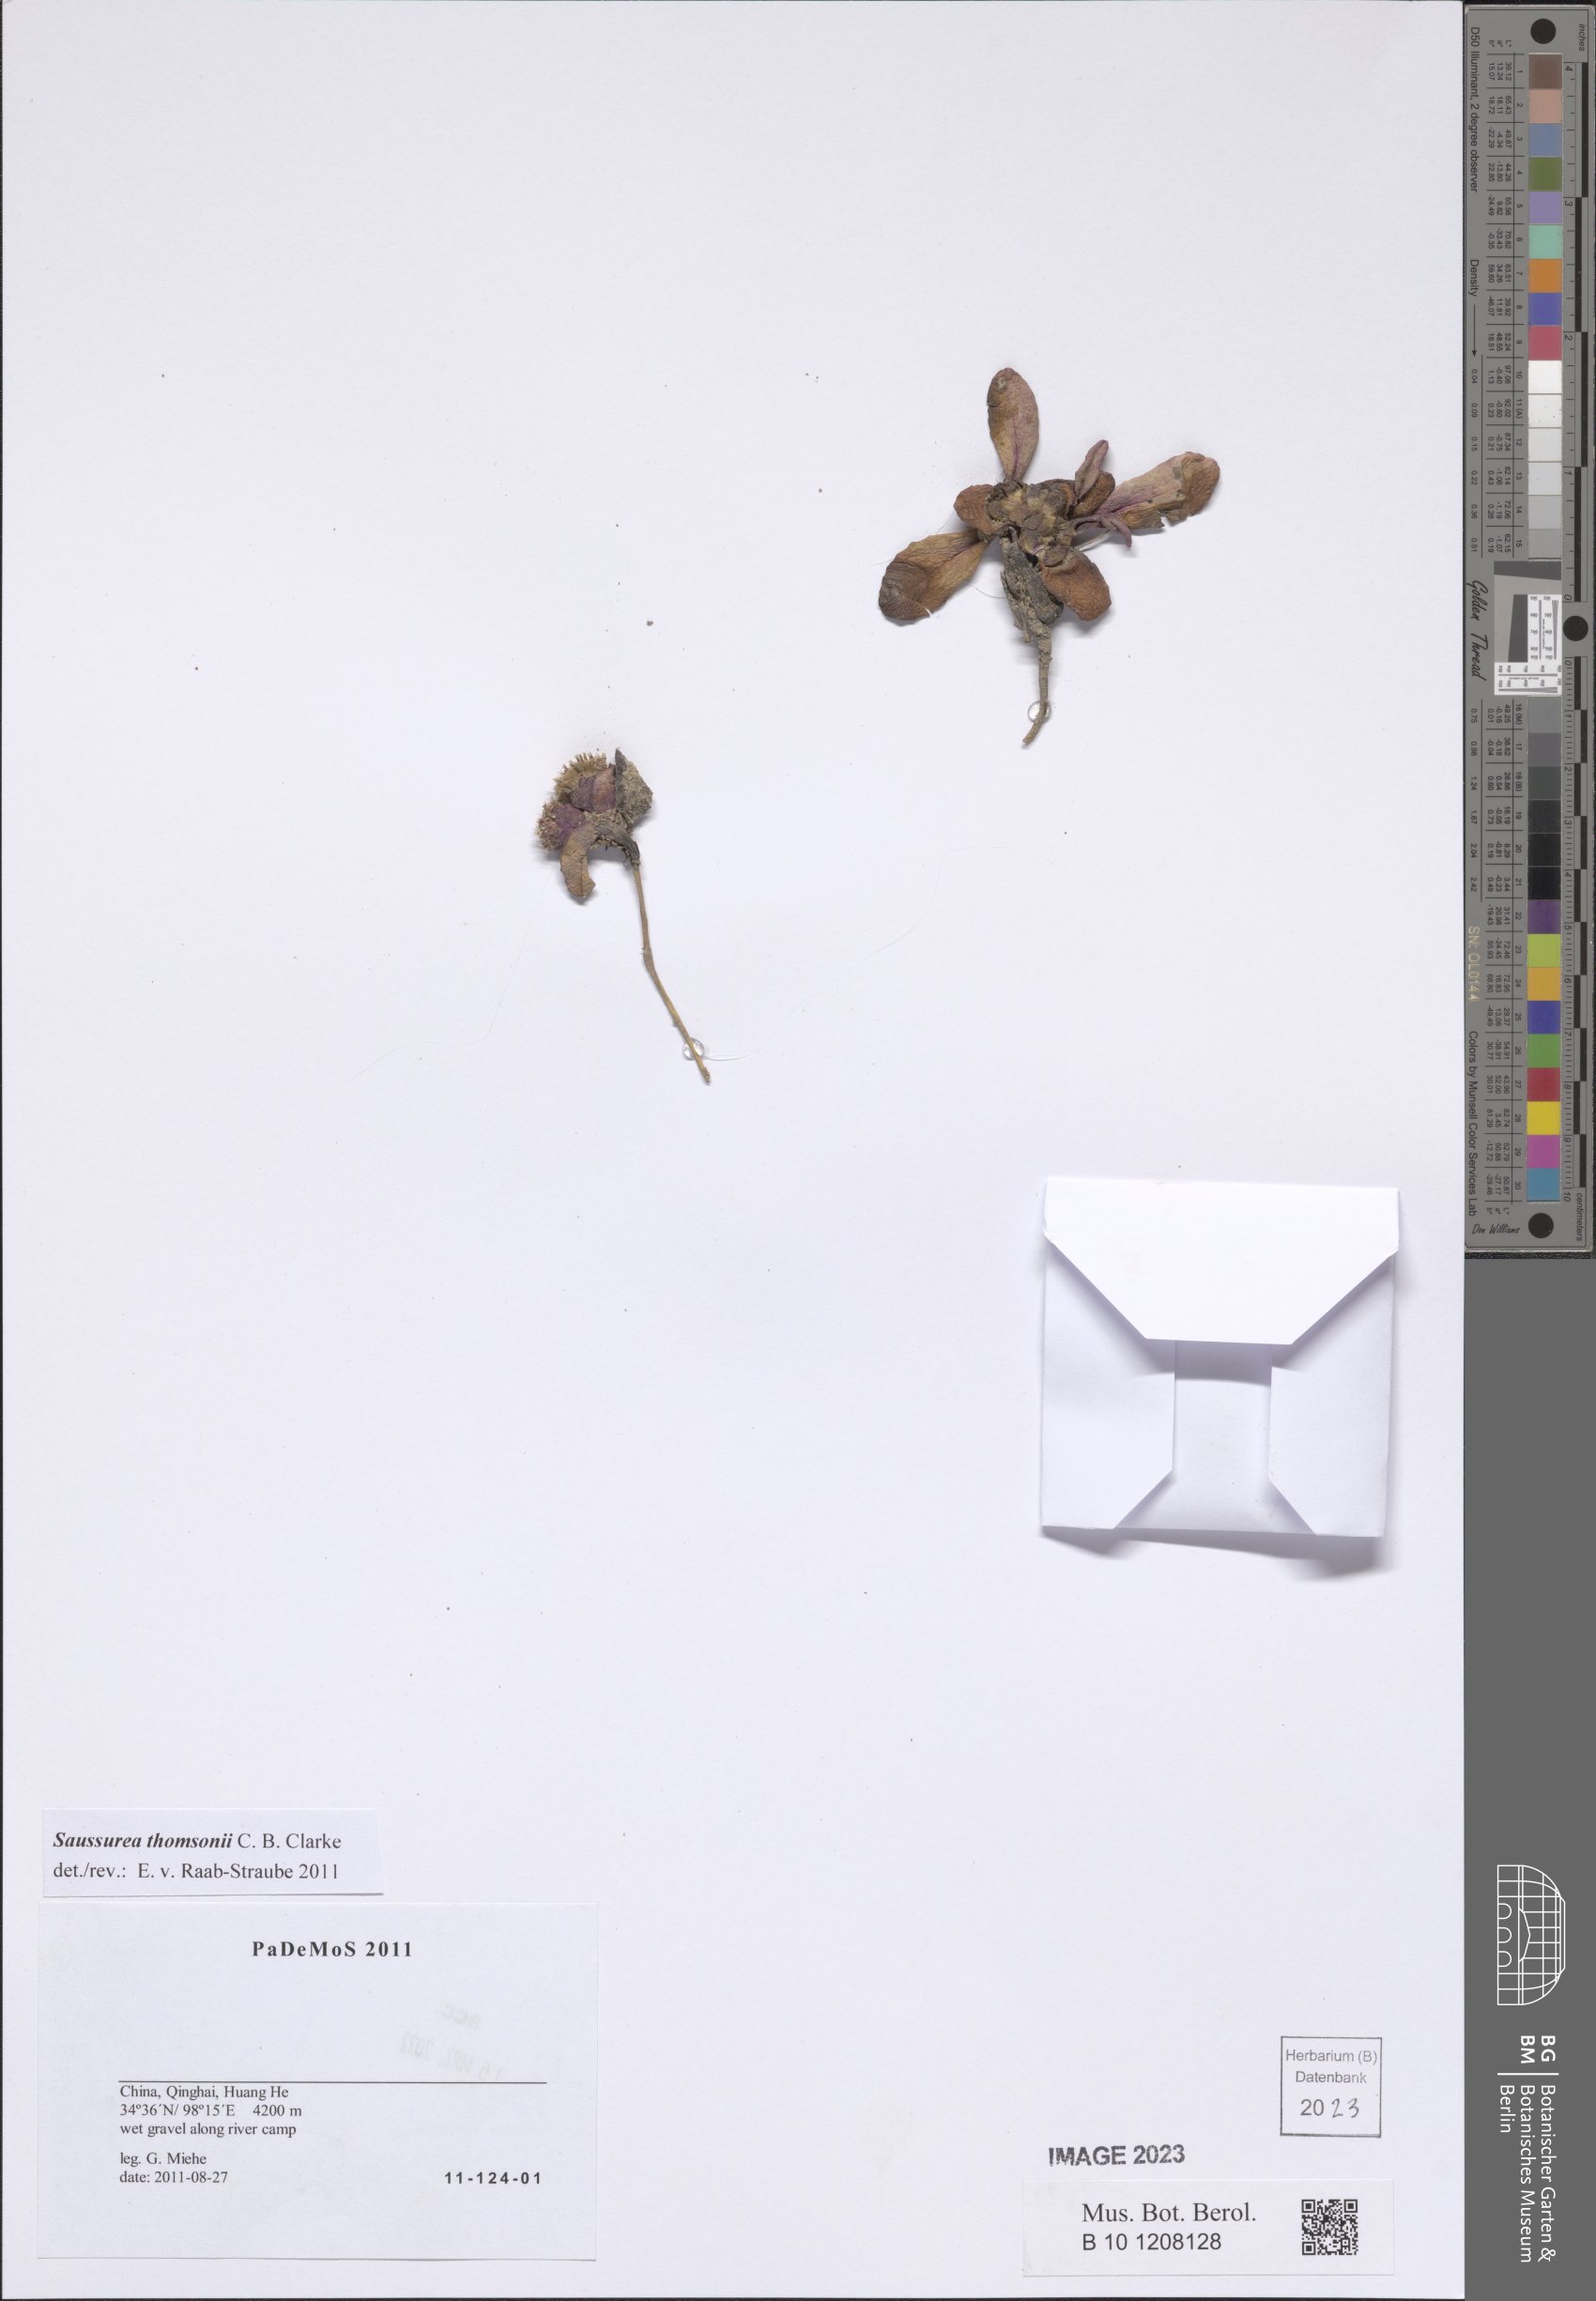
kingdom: Plantae
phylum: Tracheophyta
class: Magnoliopsida
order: Asterales
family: Asteraceae
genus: Saussurea
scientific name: Saussurea thomsonii
